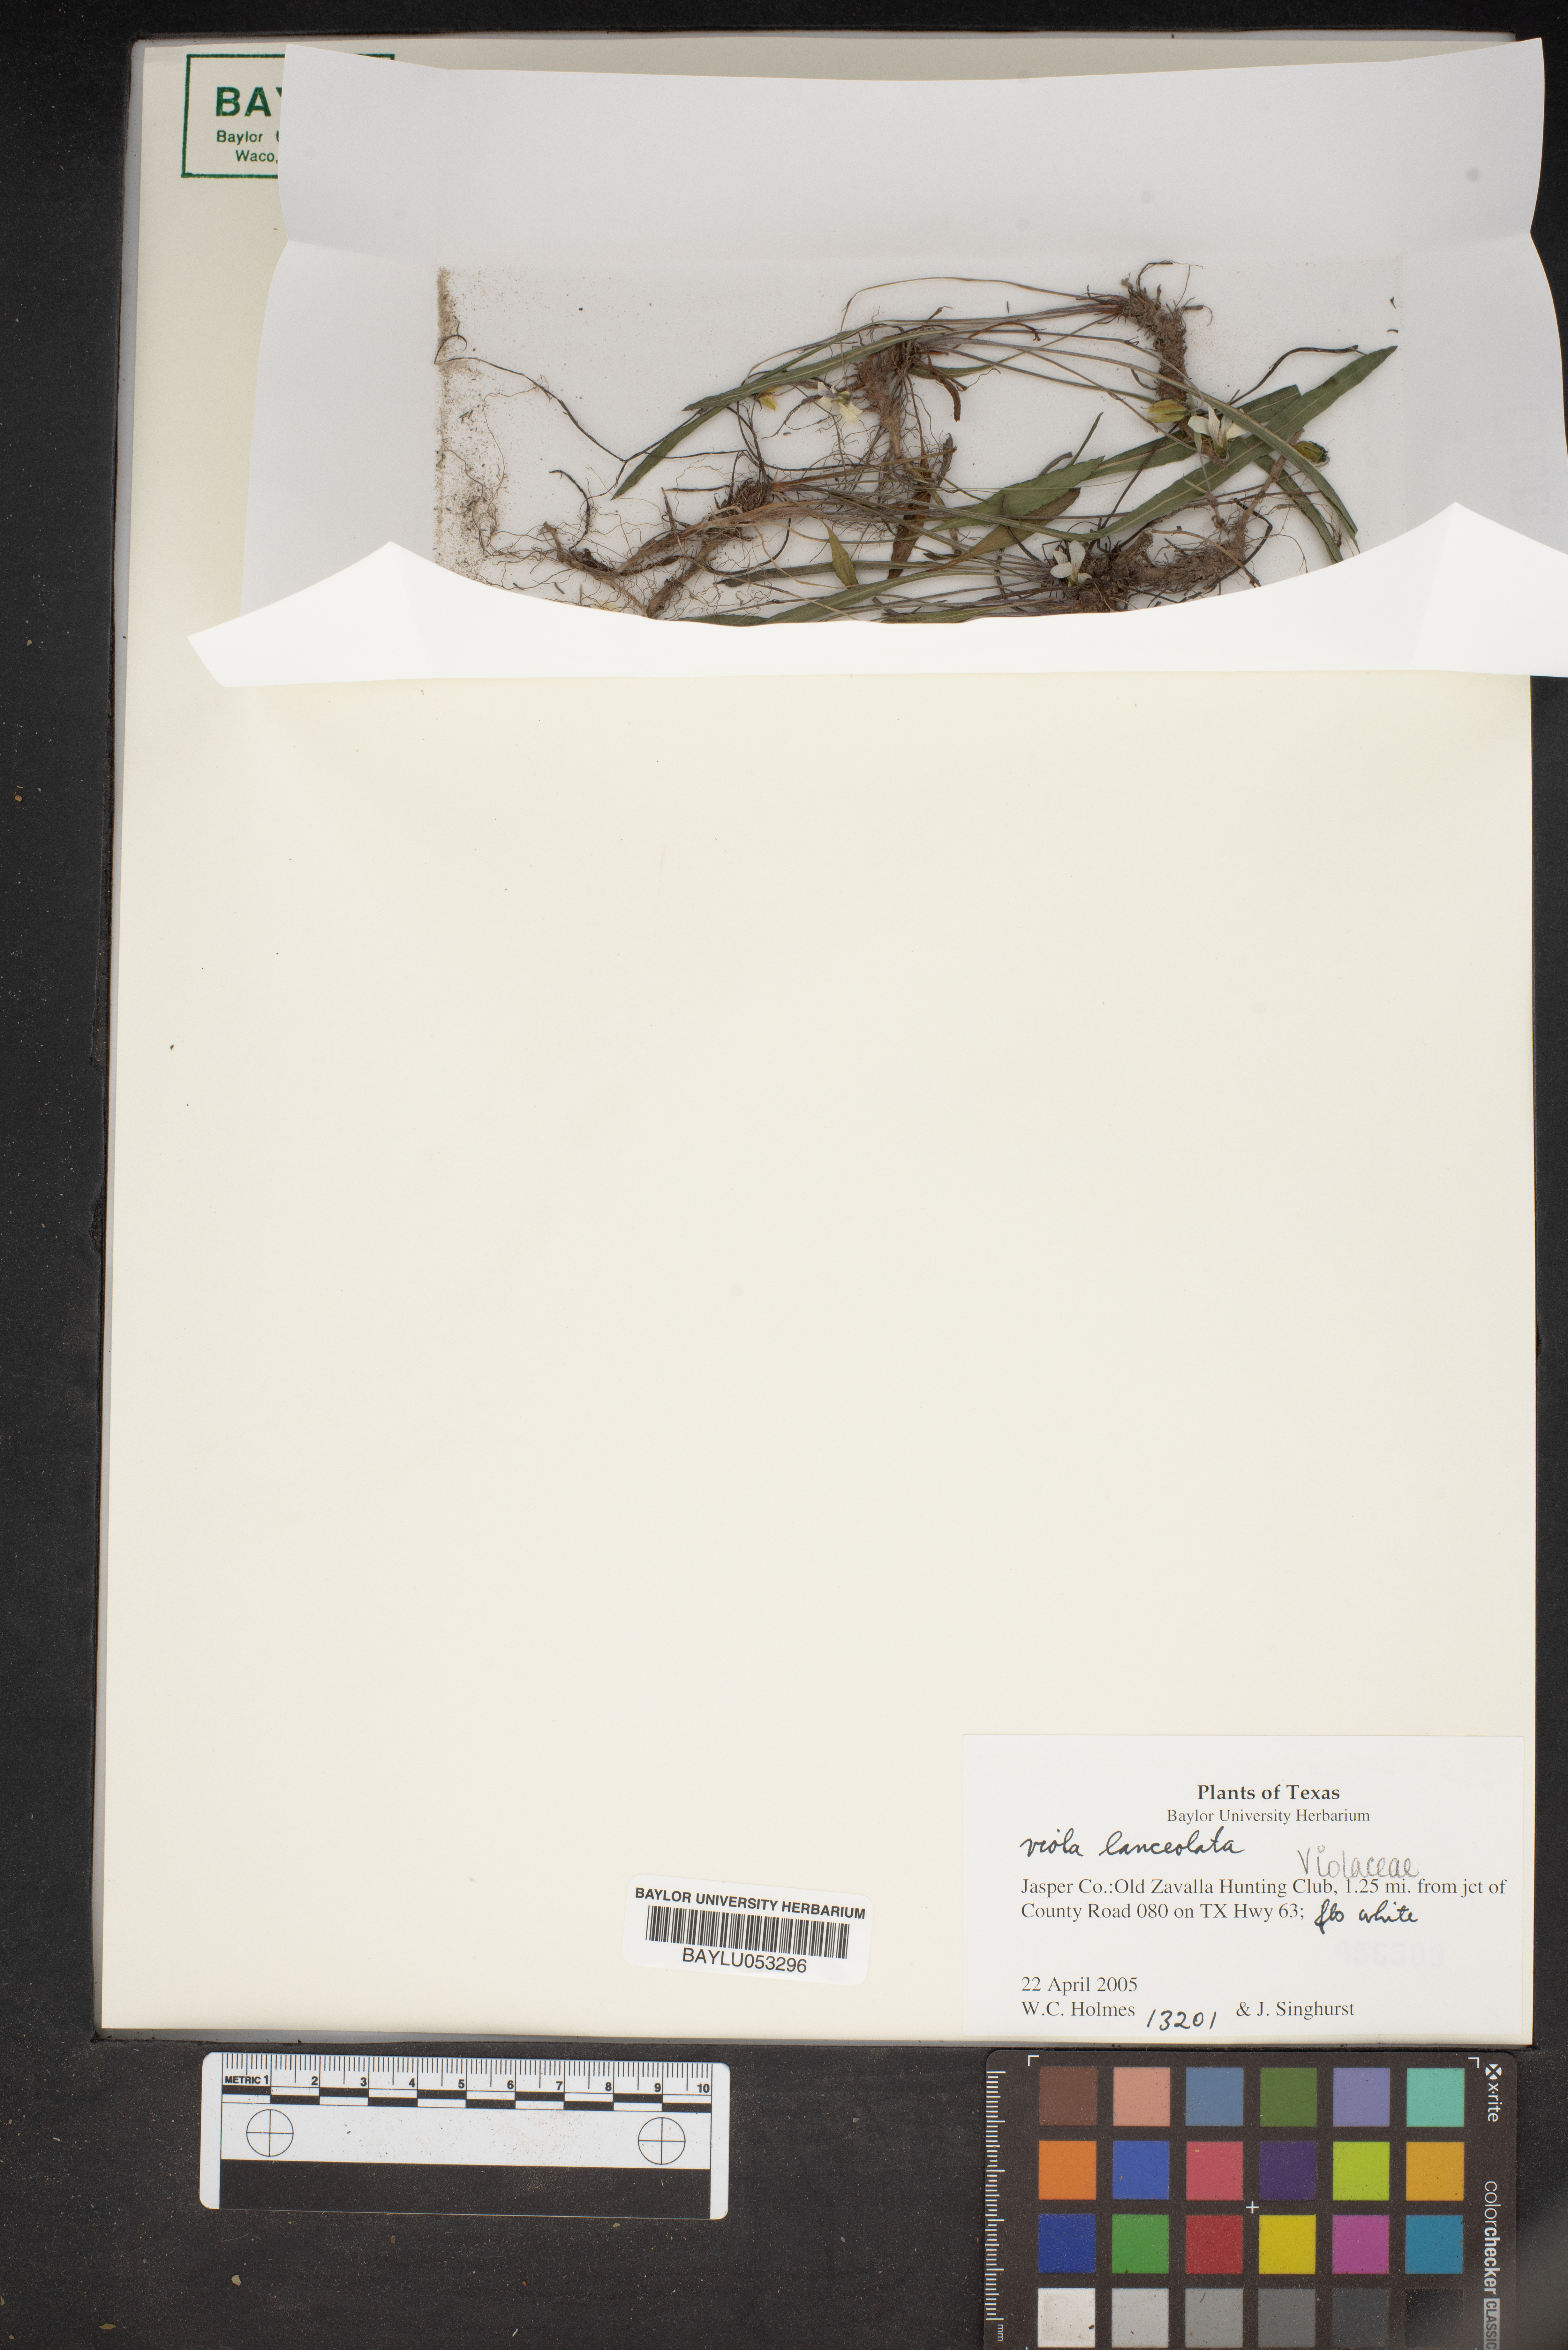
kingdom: Plantae
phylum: Tracheophyta
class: Magnoliopsida
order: Malpighiales
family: Violaceae
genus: Viola
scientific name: Viola lanceolata
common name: Bog white violet
